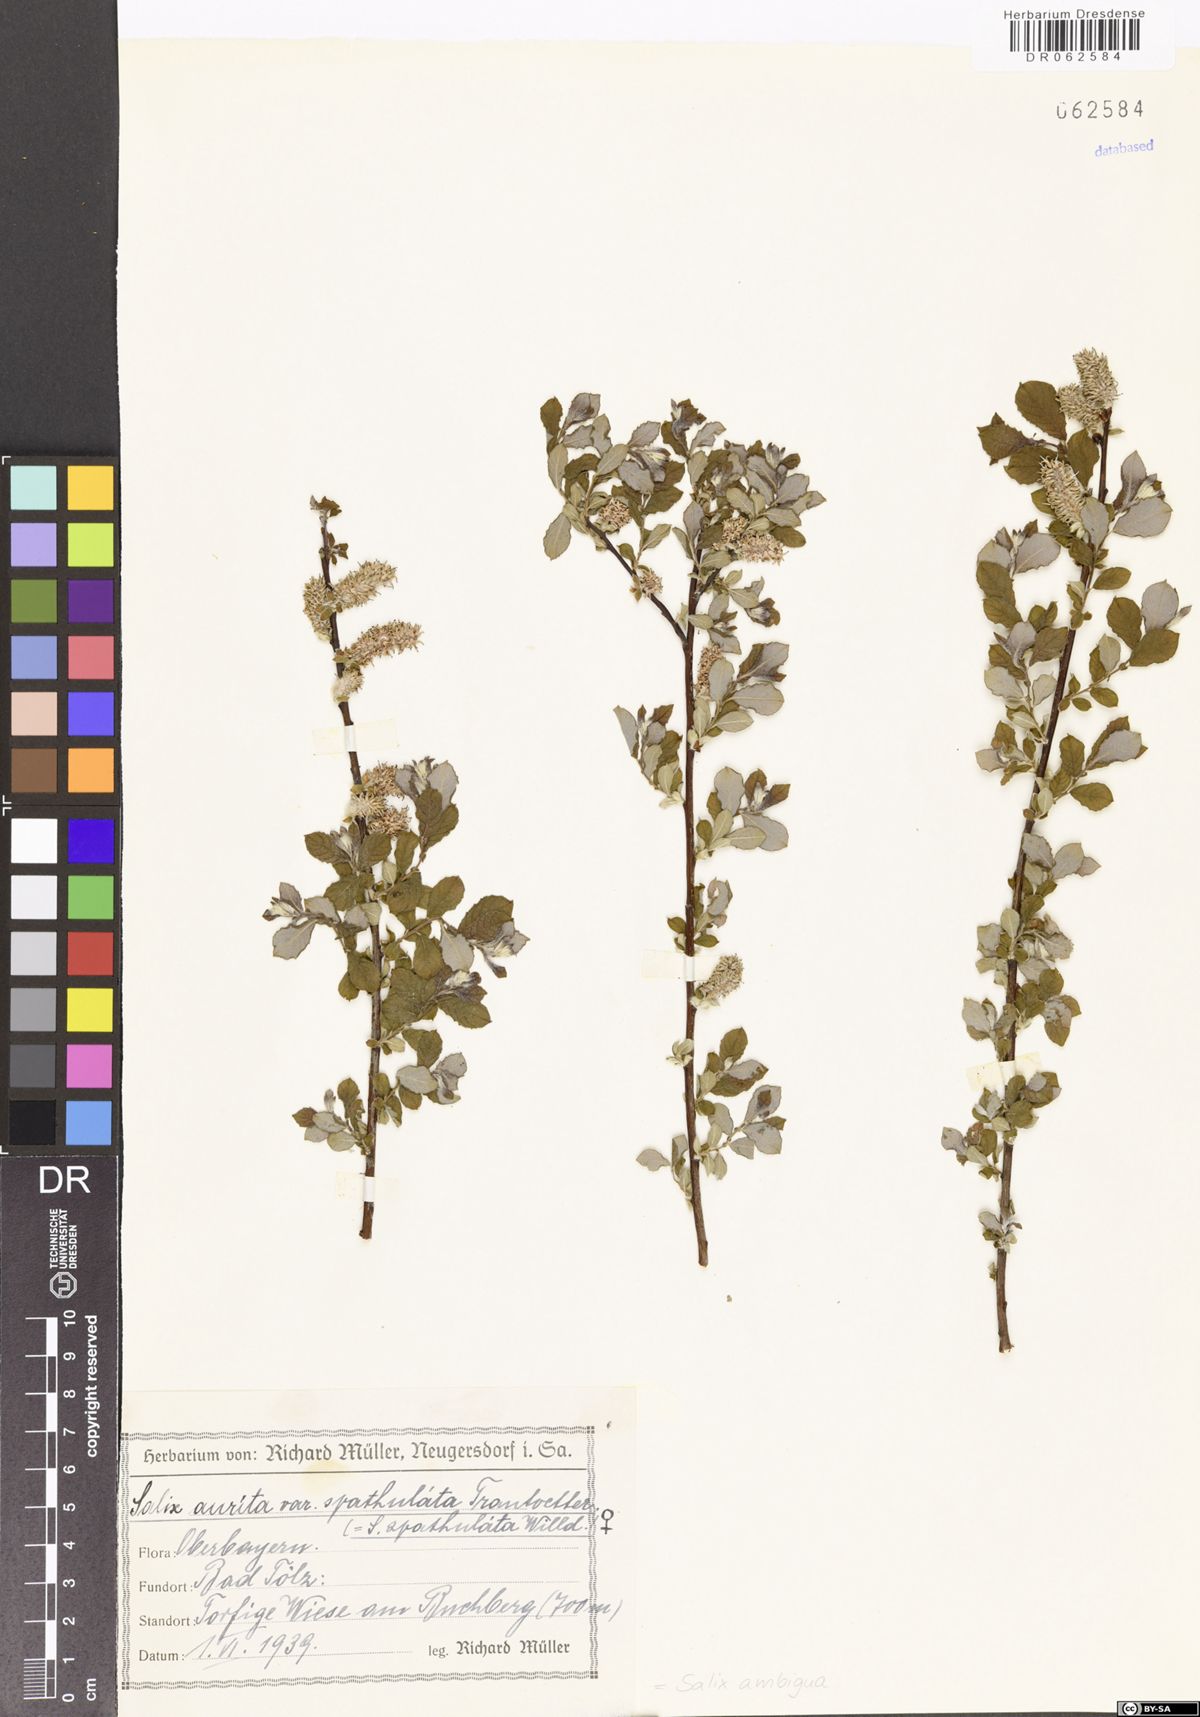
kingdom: Plantae
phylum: Tracheophyta
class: Magnoliopsida
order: Malpighiales
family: Salicaceae
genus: Salix
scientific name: Salix ambigua
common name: Puzzle willow
